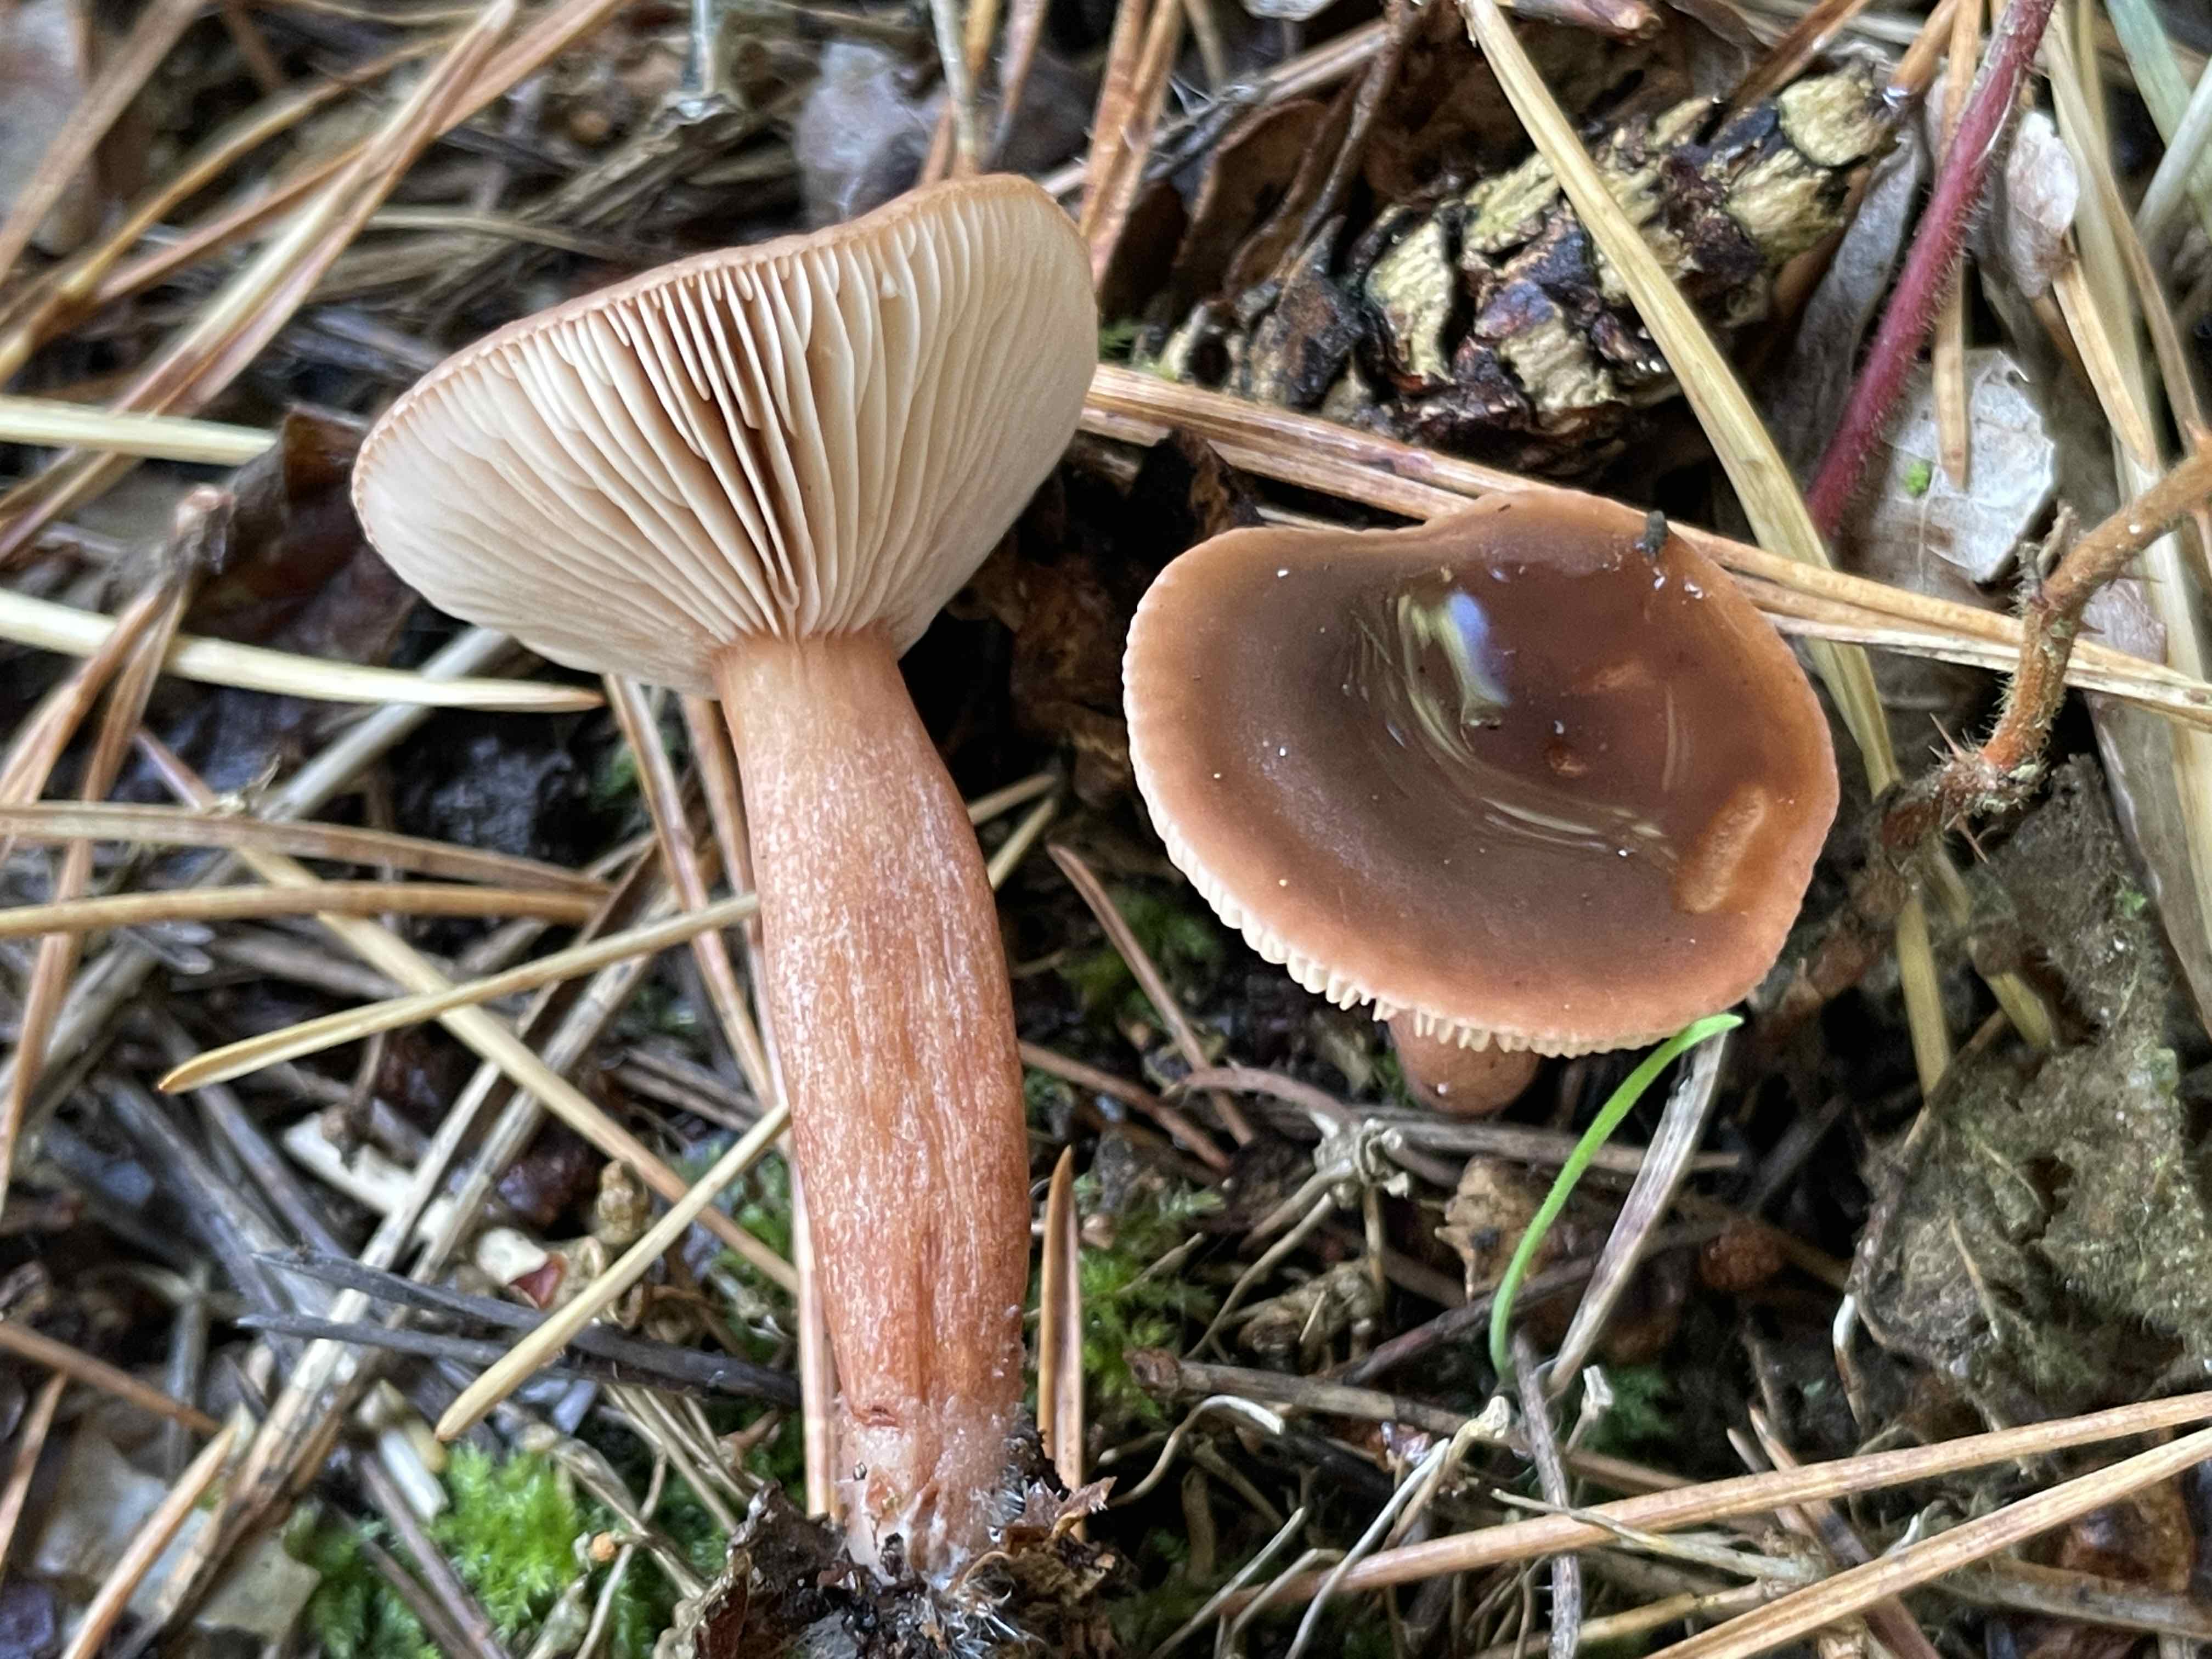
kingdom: Fungi
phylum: Basidiomycota
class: Agaricomycetes
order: Russulales
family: Russulaceae
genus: Lactarius
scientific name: Lactarius hepaticus
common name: leverbrun mælkehat
